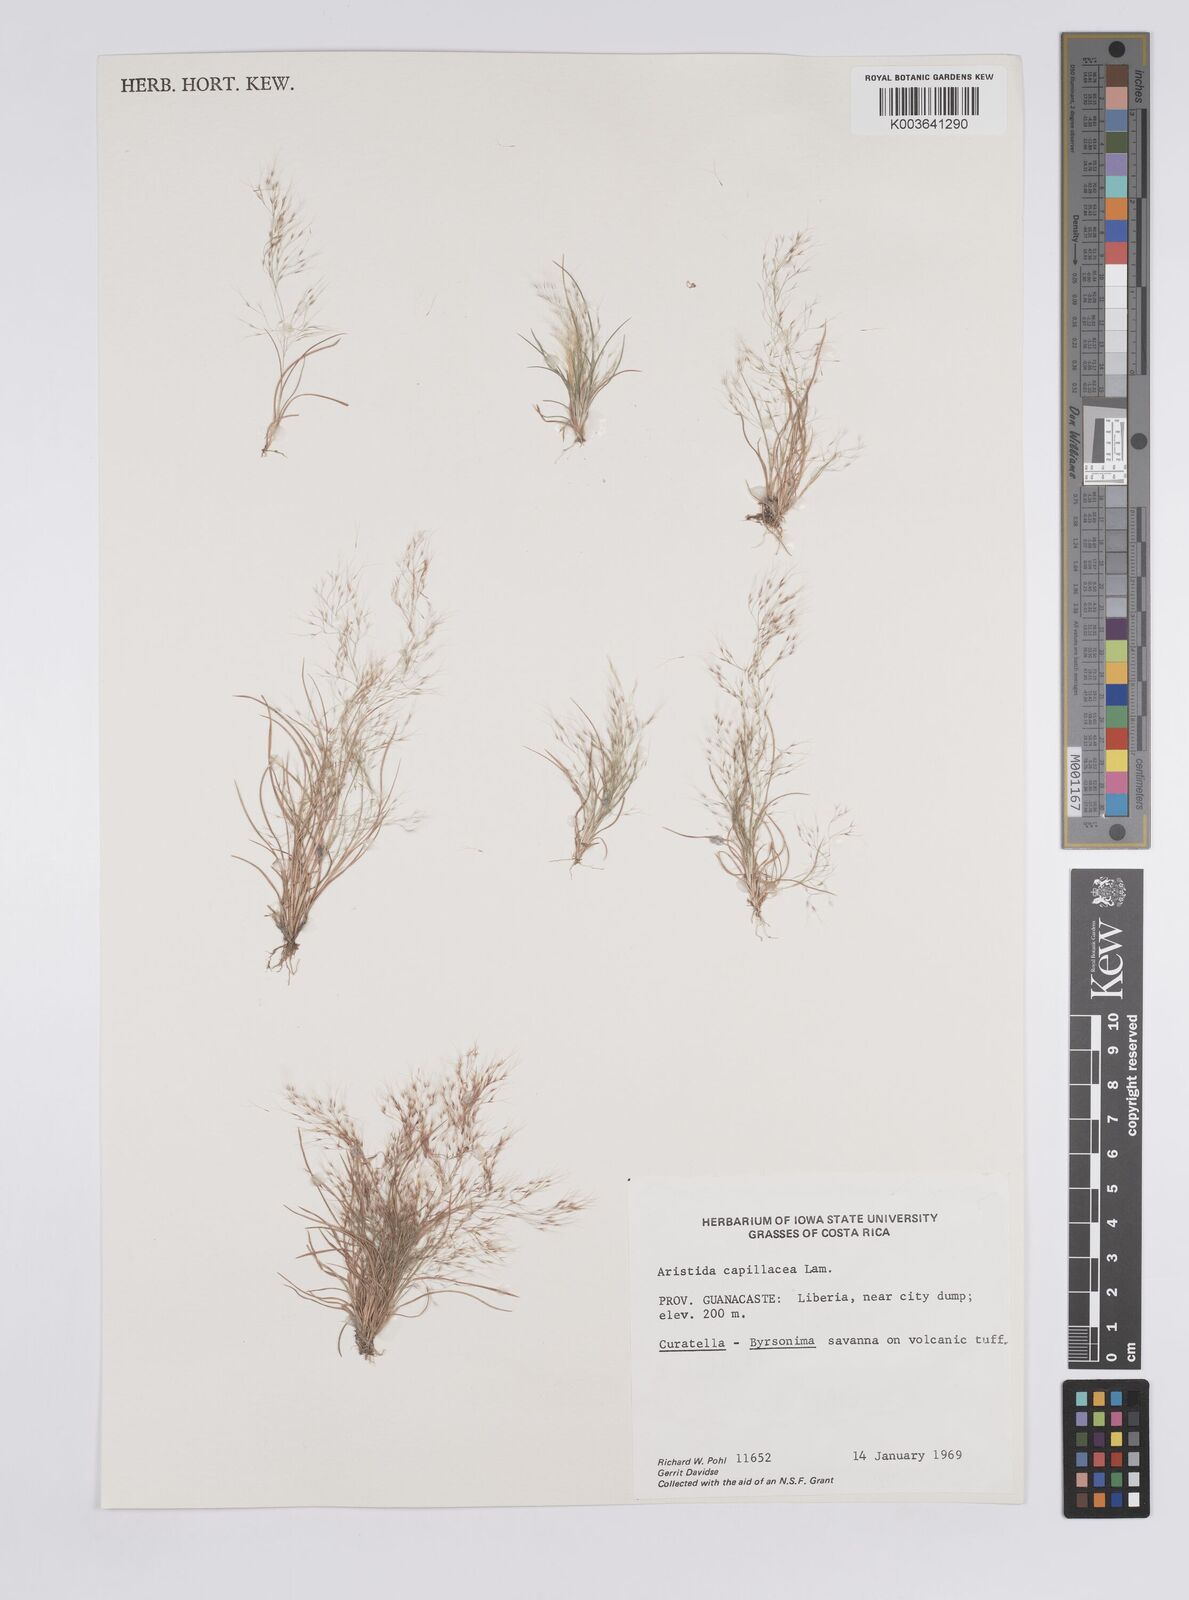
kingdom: Plantae
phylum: Tracheophyta
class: Liliopsida
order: Poales
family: Poaceae
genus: Aristida
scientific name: Aristida
